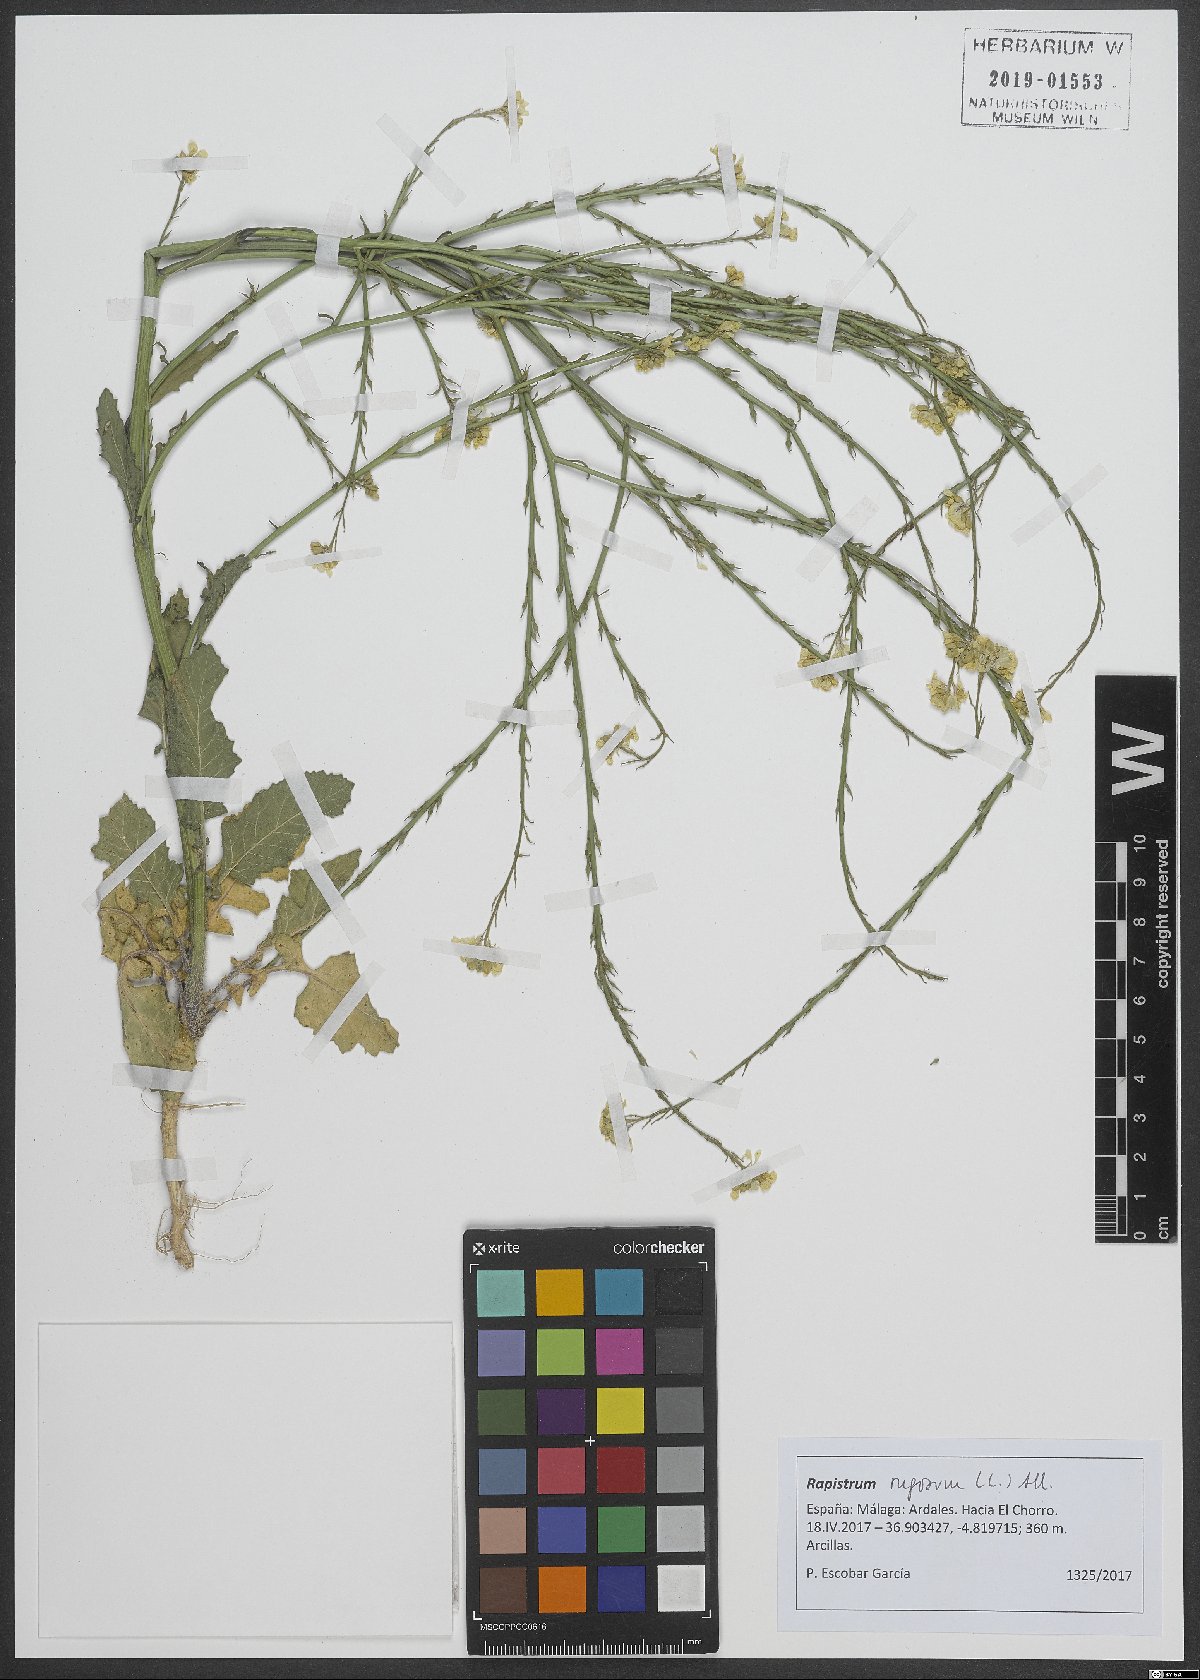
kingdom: Plantae
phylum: Tracheophyta
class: Magnoliopsida
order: Brassicales
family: Brassicaceae
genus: Rapistrum
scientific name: Rapistrum rugosum
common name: Annual bastardcabbage
